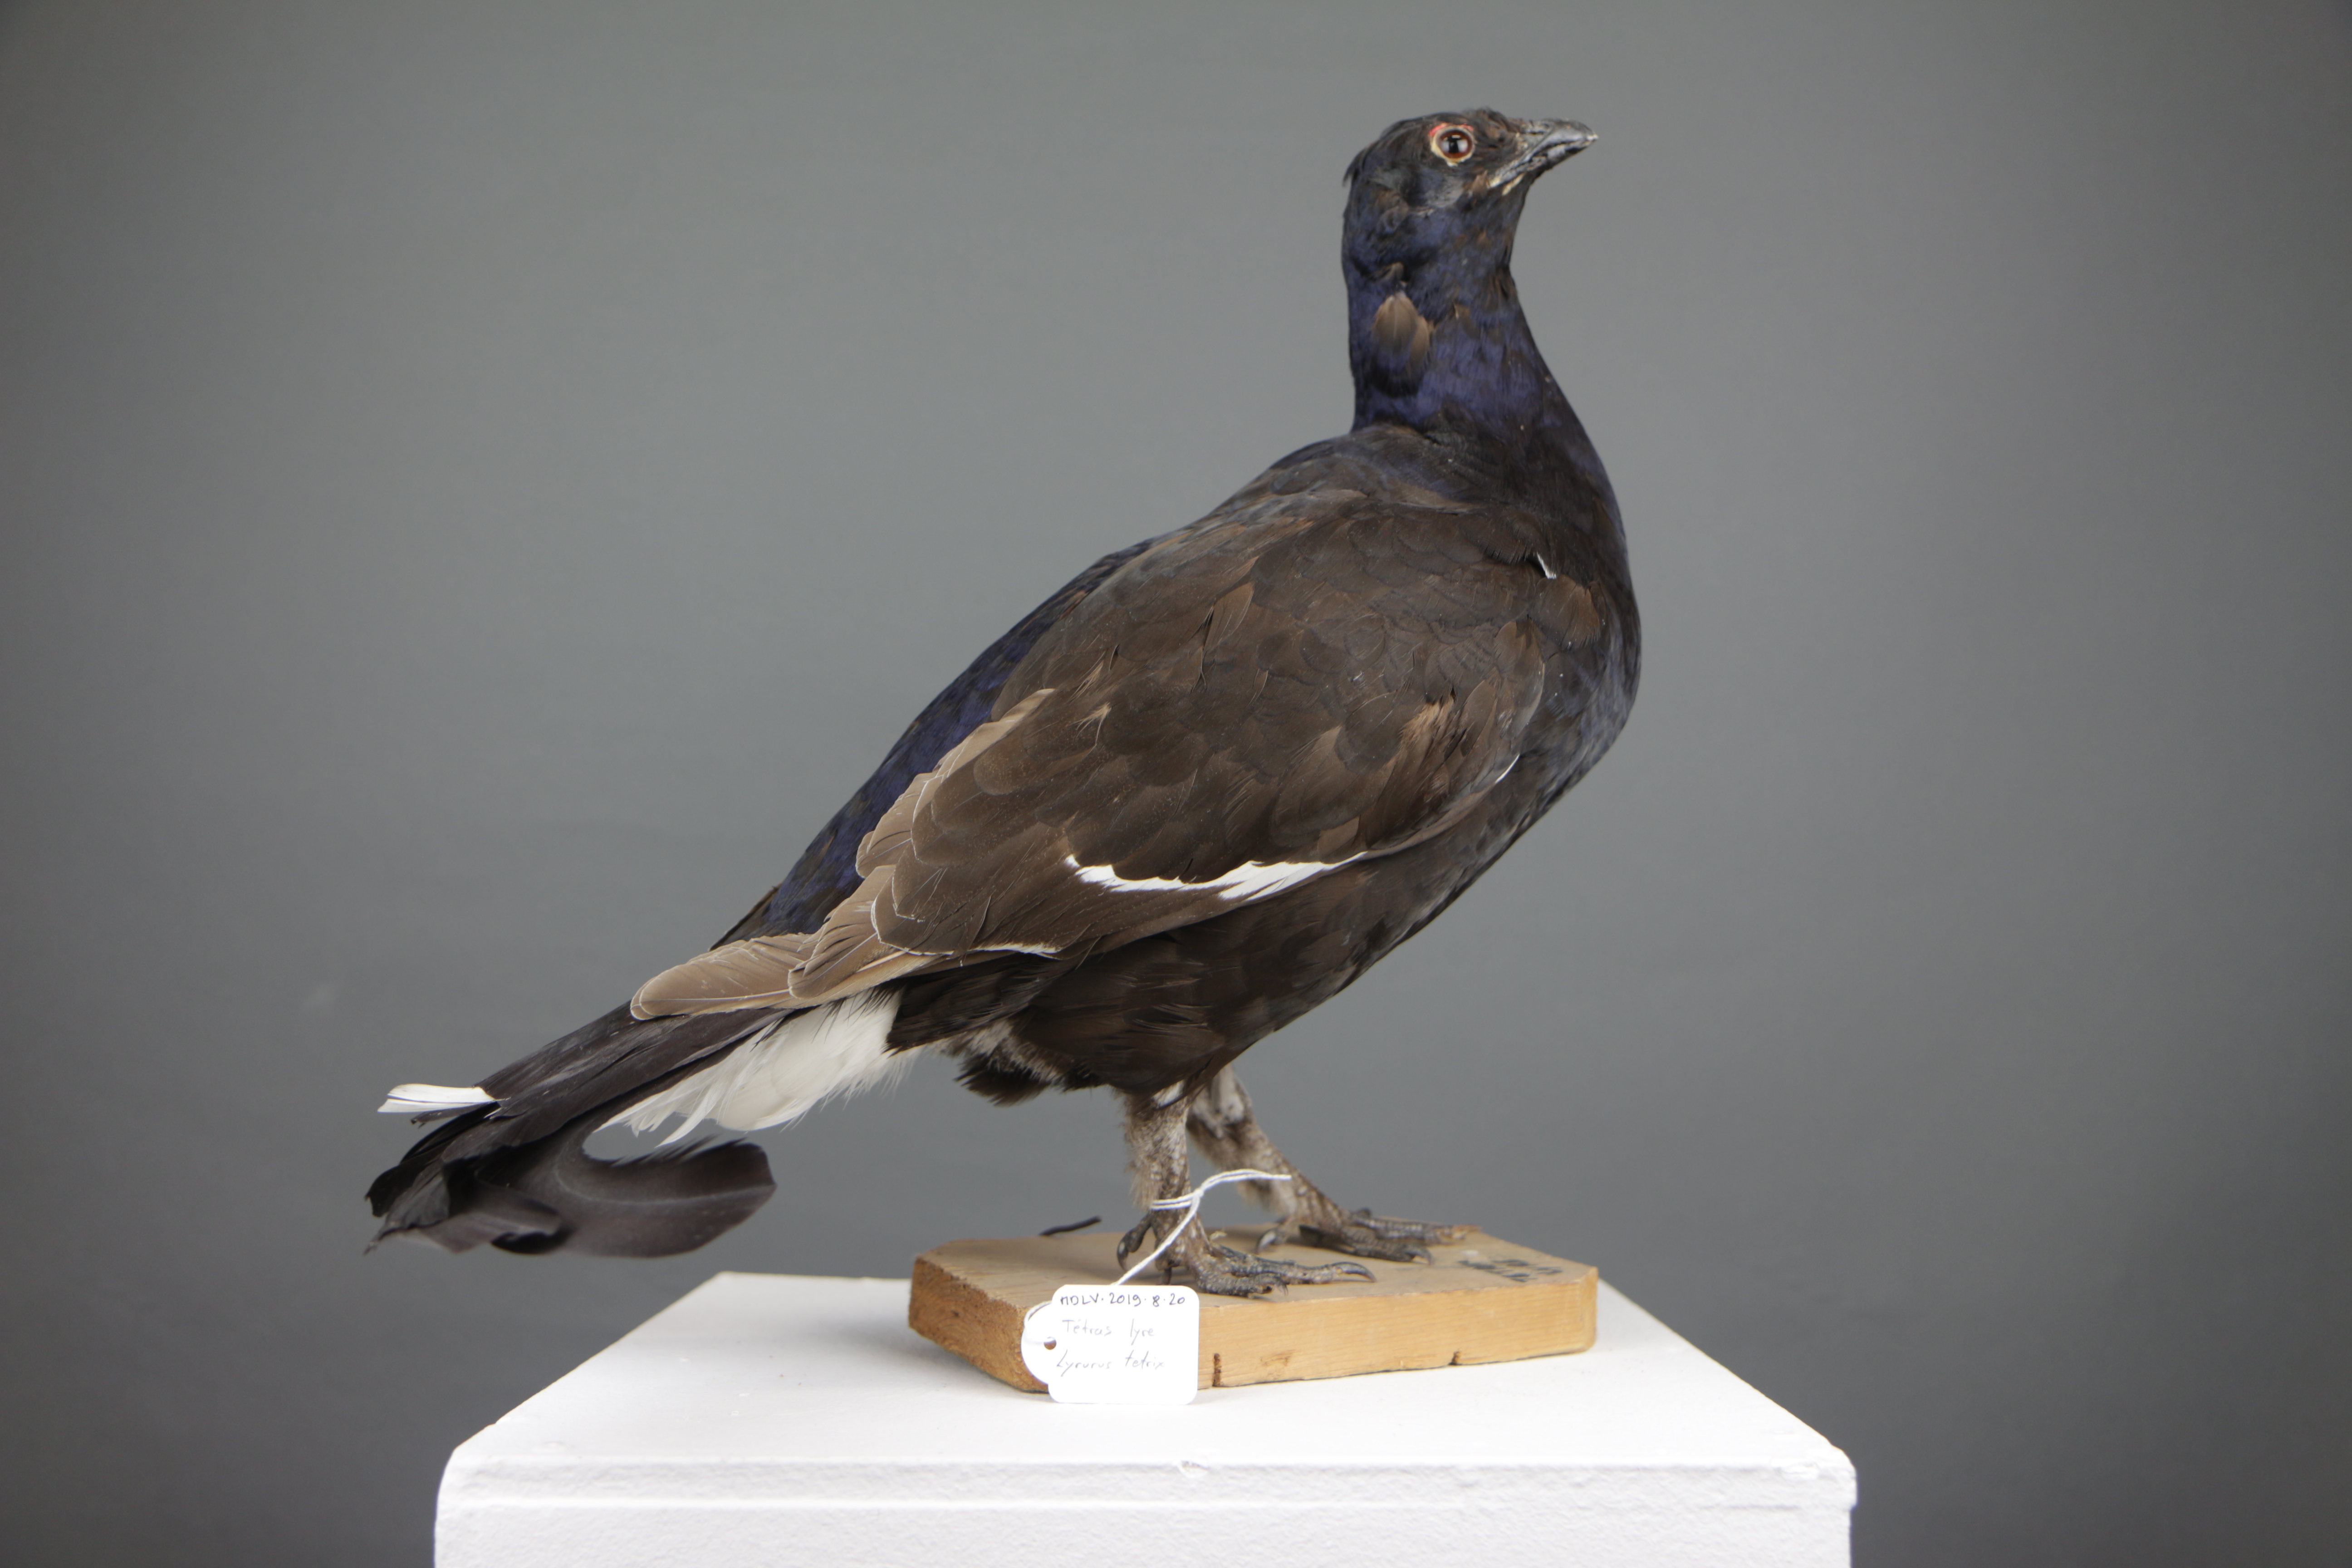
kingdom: Animalia
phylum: Chordata
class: Aves
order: Galliformes
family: Phasianidae
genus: Lyrurus
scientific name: Lyrurus tetrix
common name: Black grouse
